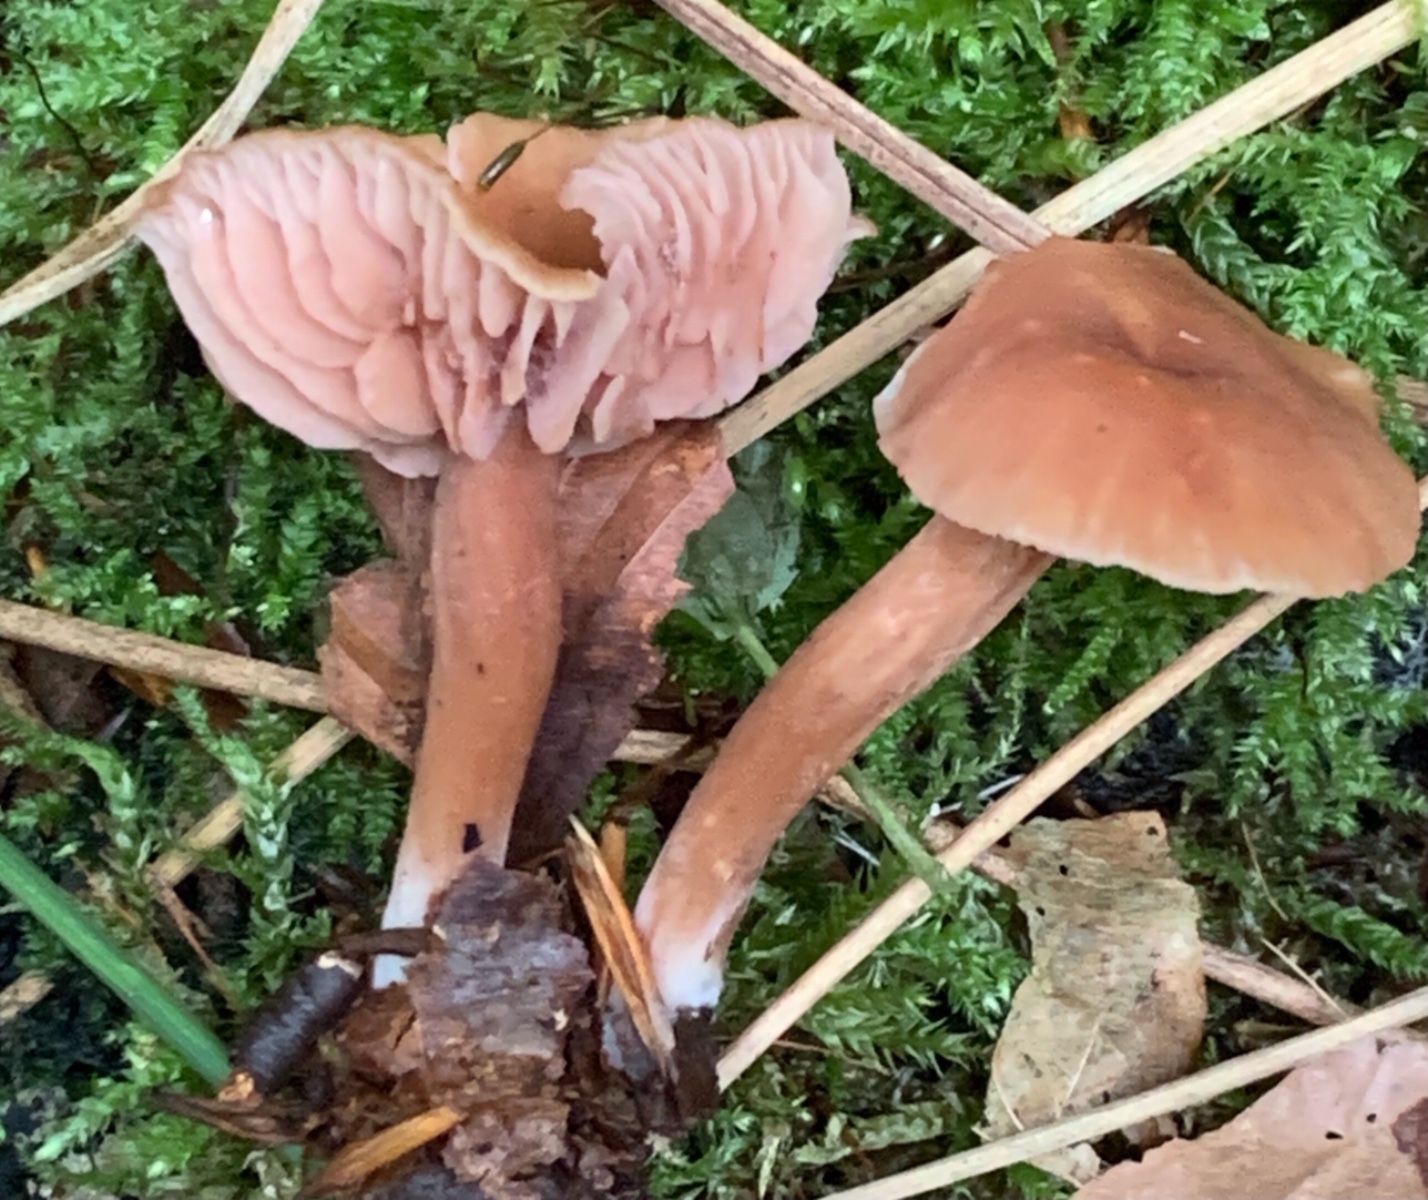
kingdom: Fungi
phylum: Basidiomycota
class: Agaricomycetes
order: Agaricales
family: Hydnangiaceae
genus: Laccaria
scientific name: Laccaria laccata
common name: rød ametysthat
